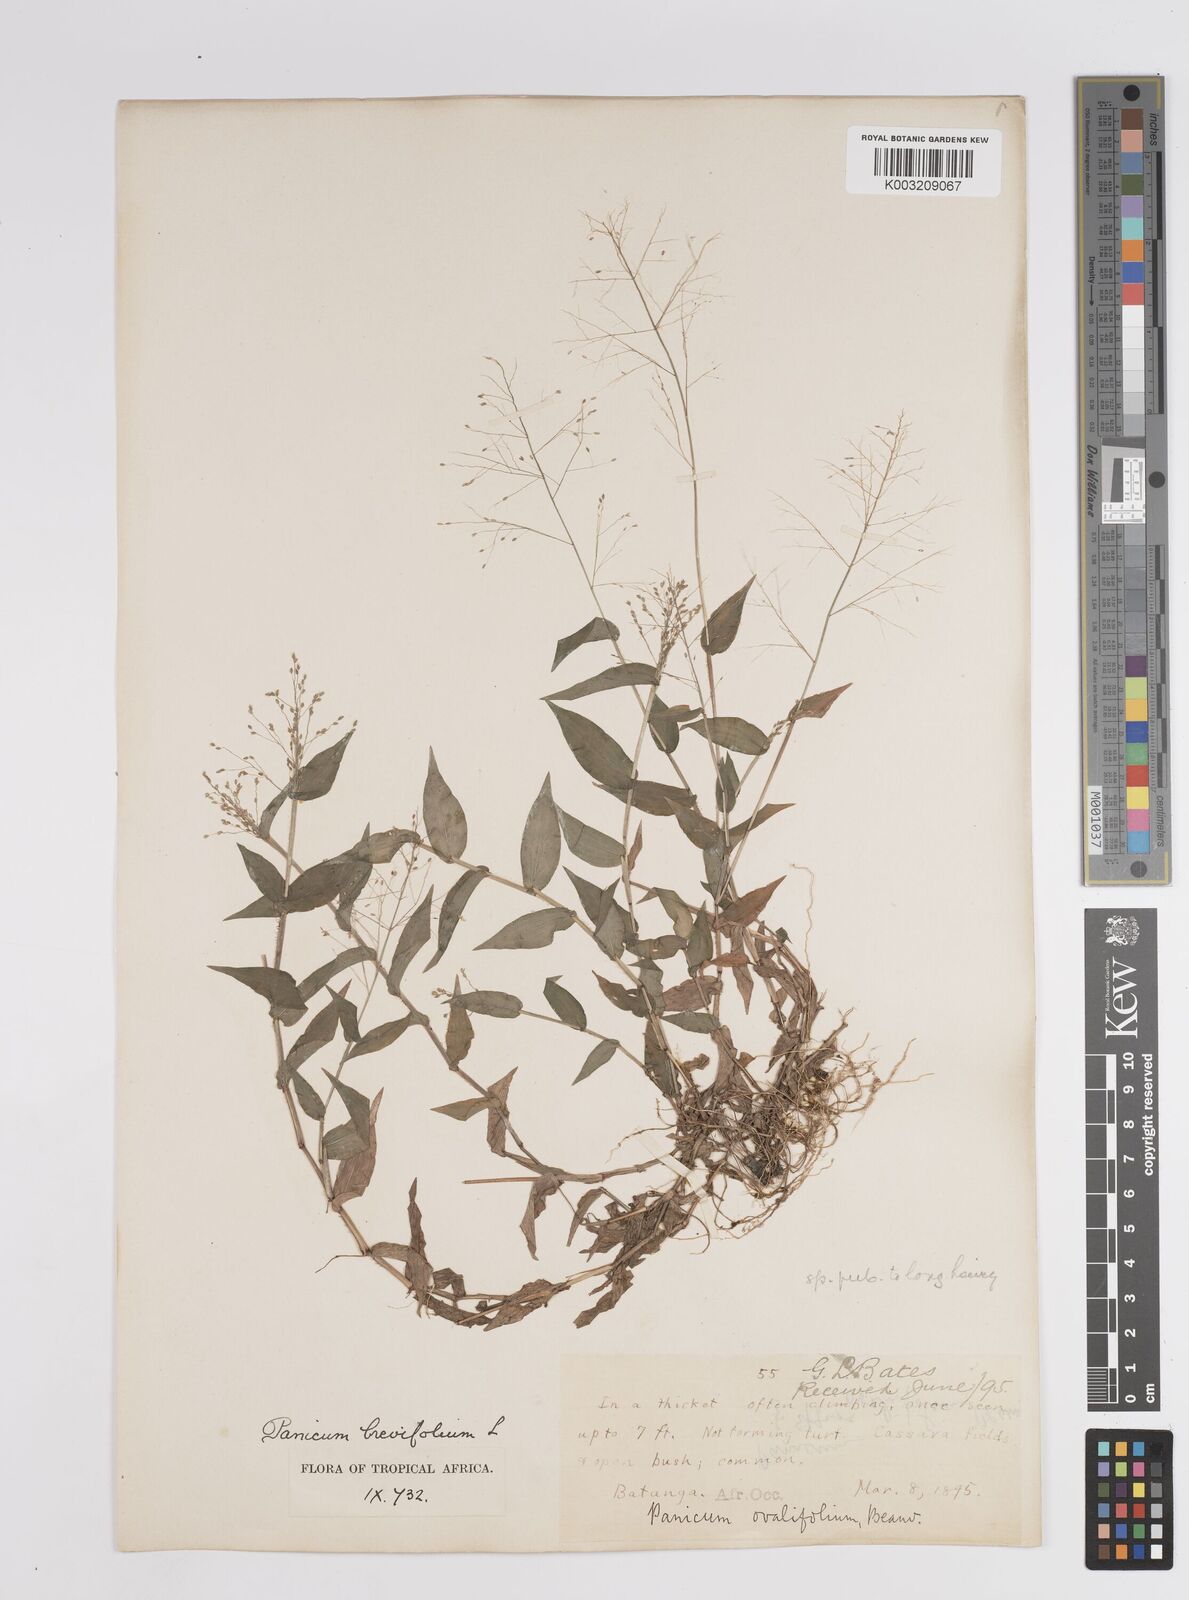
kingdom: Plantae
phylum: Tracheophyta
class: Liliopsida
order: Poales
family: Poaceae
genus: Panicum
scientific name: Panicum brevifolium
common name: Shortleaf panic grass
